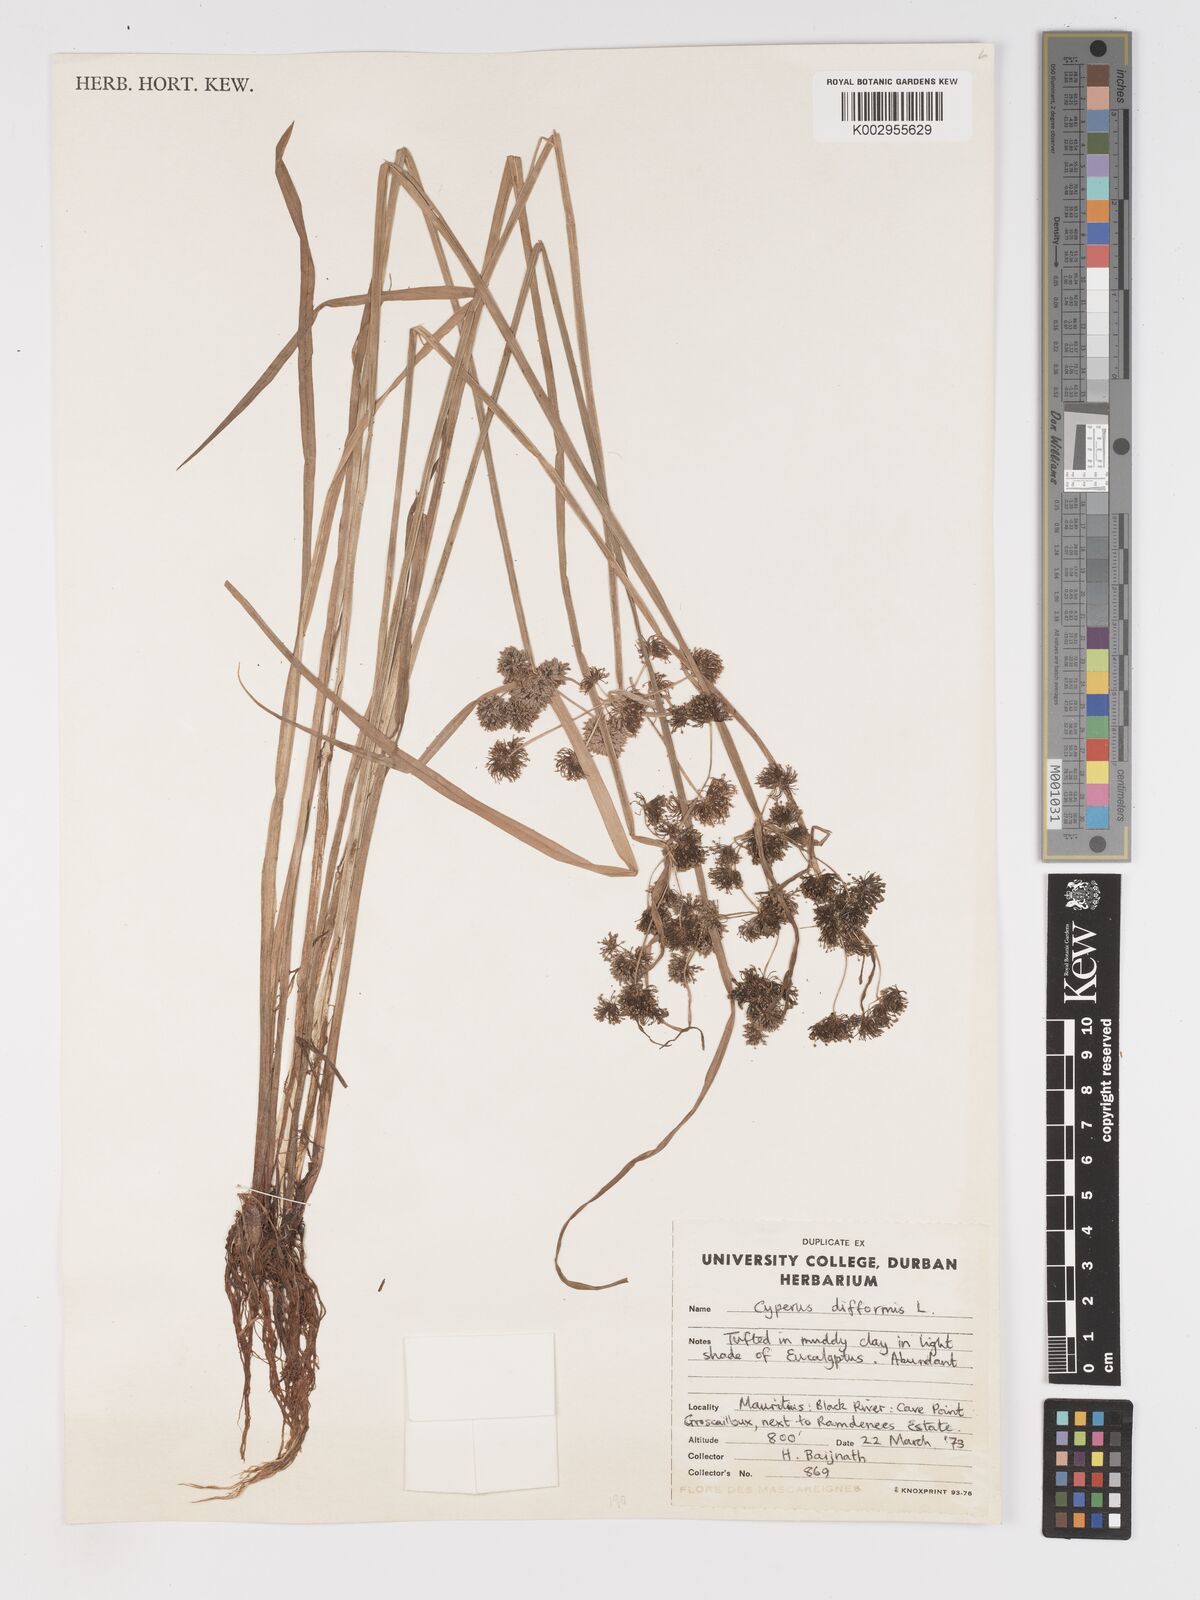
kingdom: Plantae
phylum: Tracheophyta
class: Liliopsida
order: Poales
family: Cyperaceae
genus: Cyperus
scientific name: Cyperus difformis
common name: Variable flatsedge
